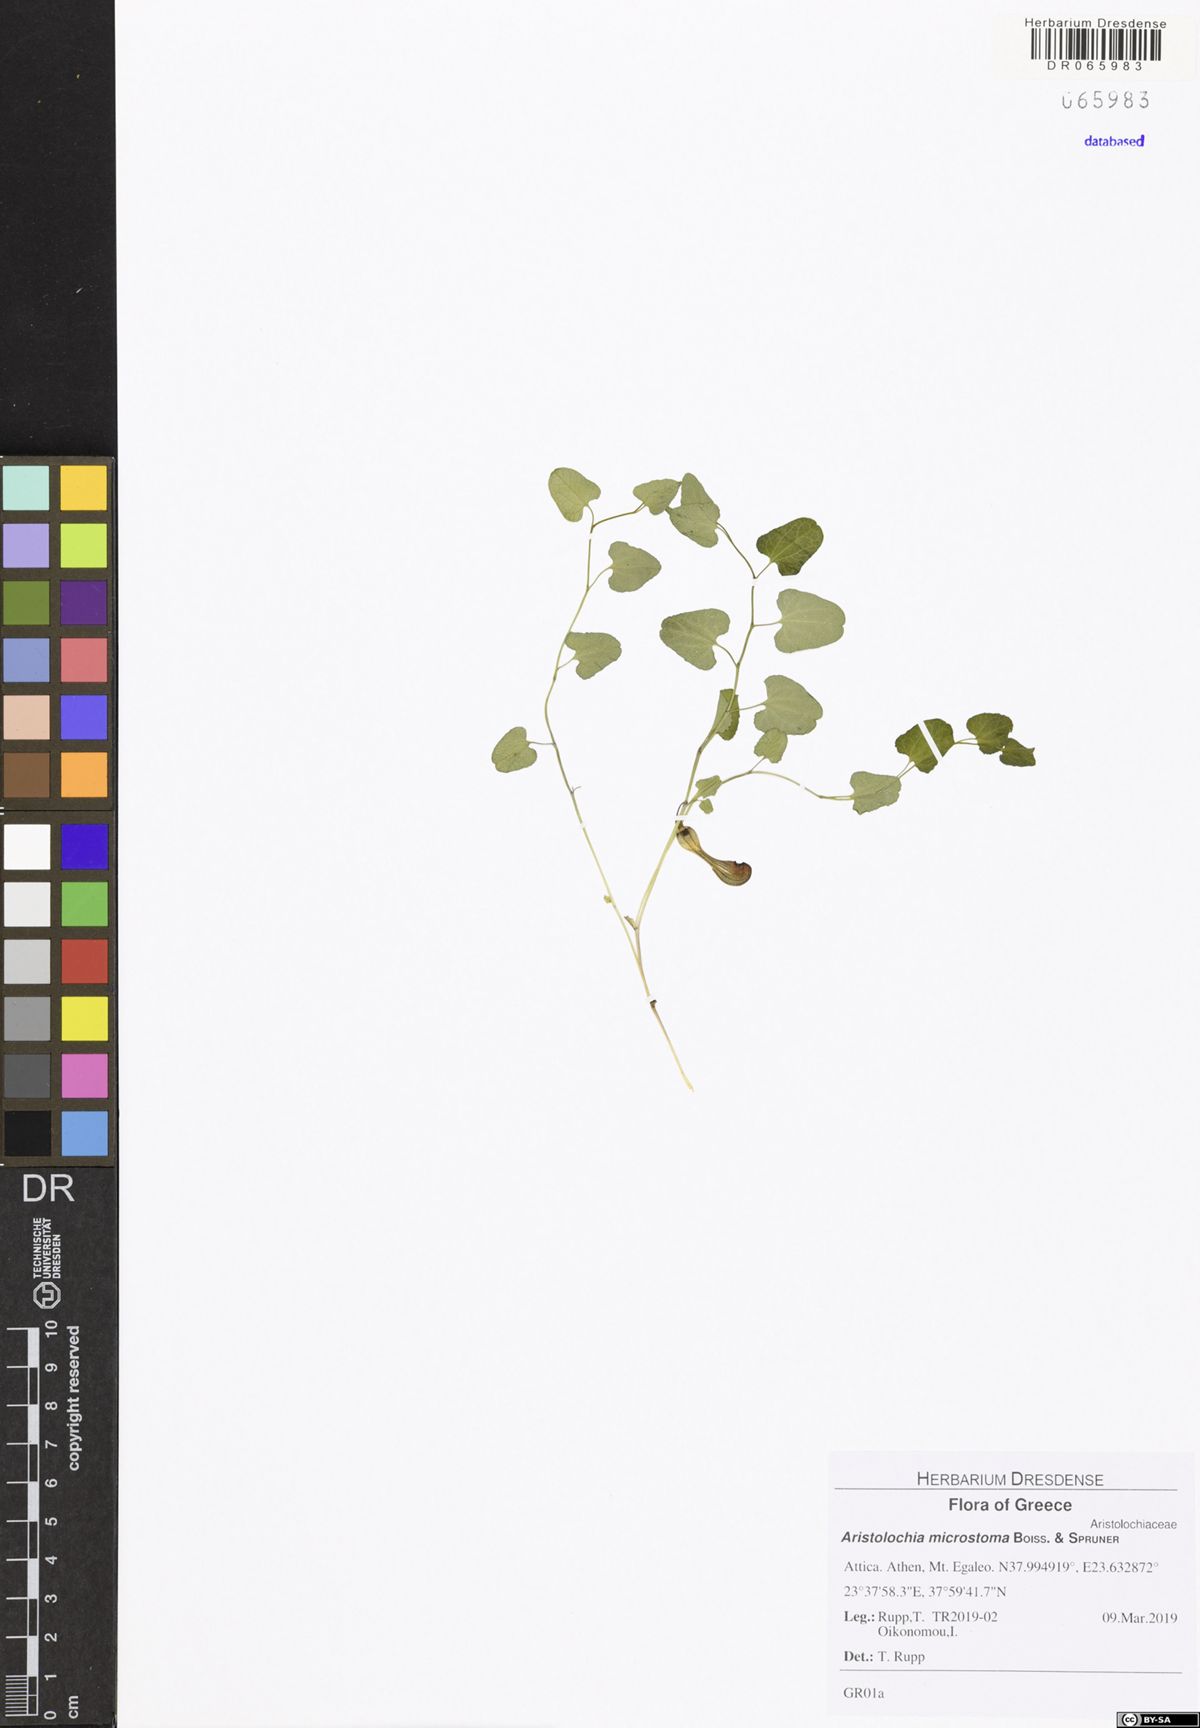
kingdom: Plantae
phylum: Tracheophyta
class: Magnoliopsida
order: Piperales
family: Aristolochiaceae
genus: Aristolochia
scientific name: Aristolochia microstoma
